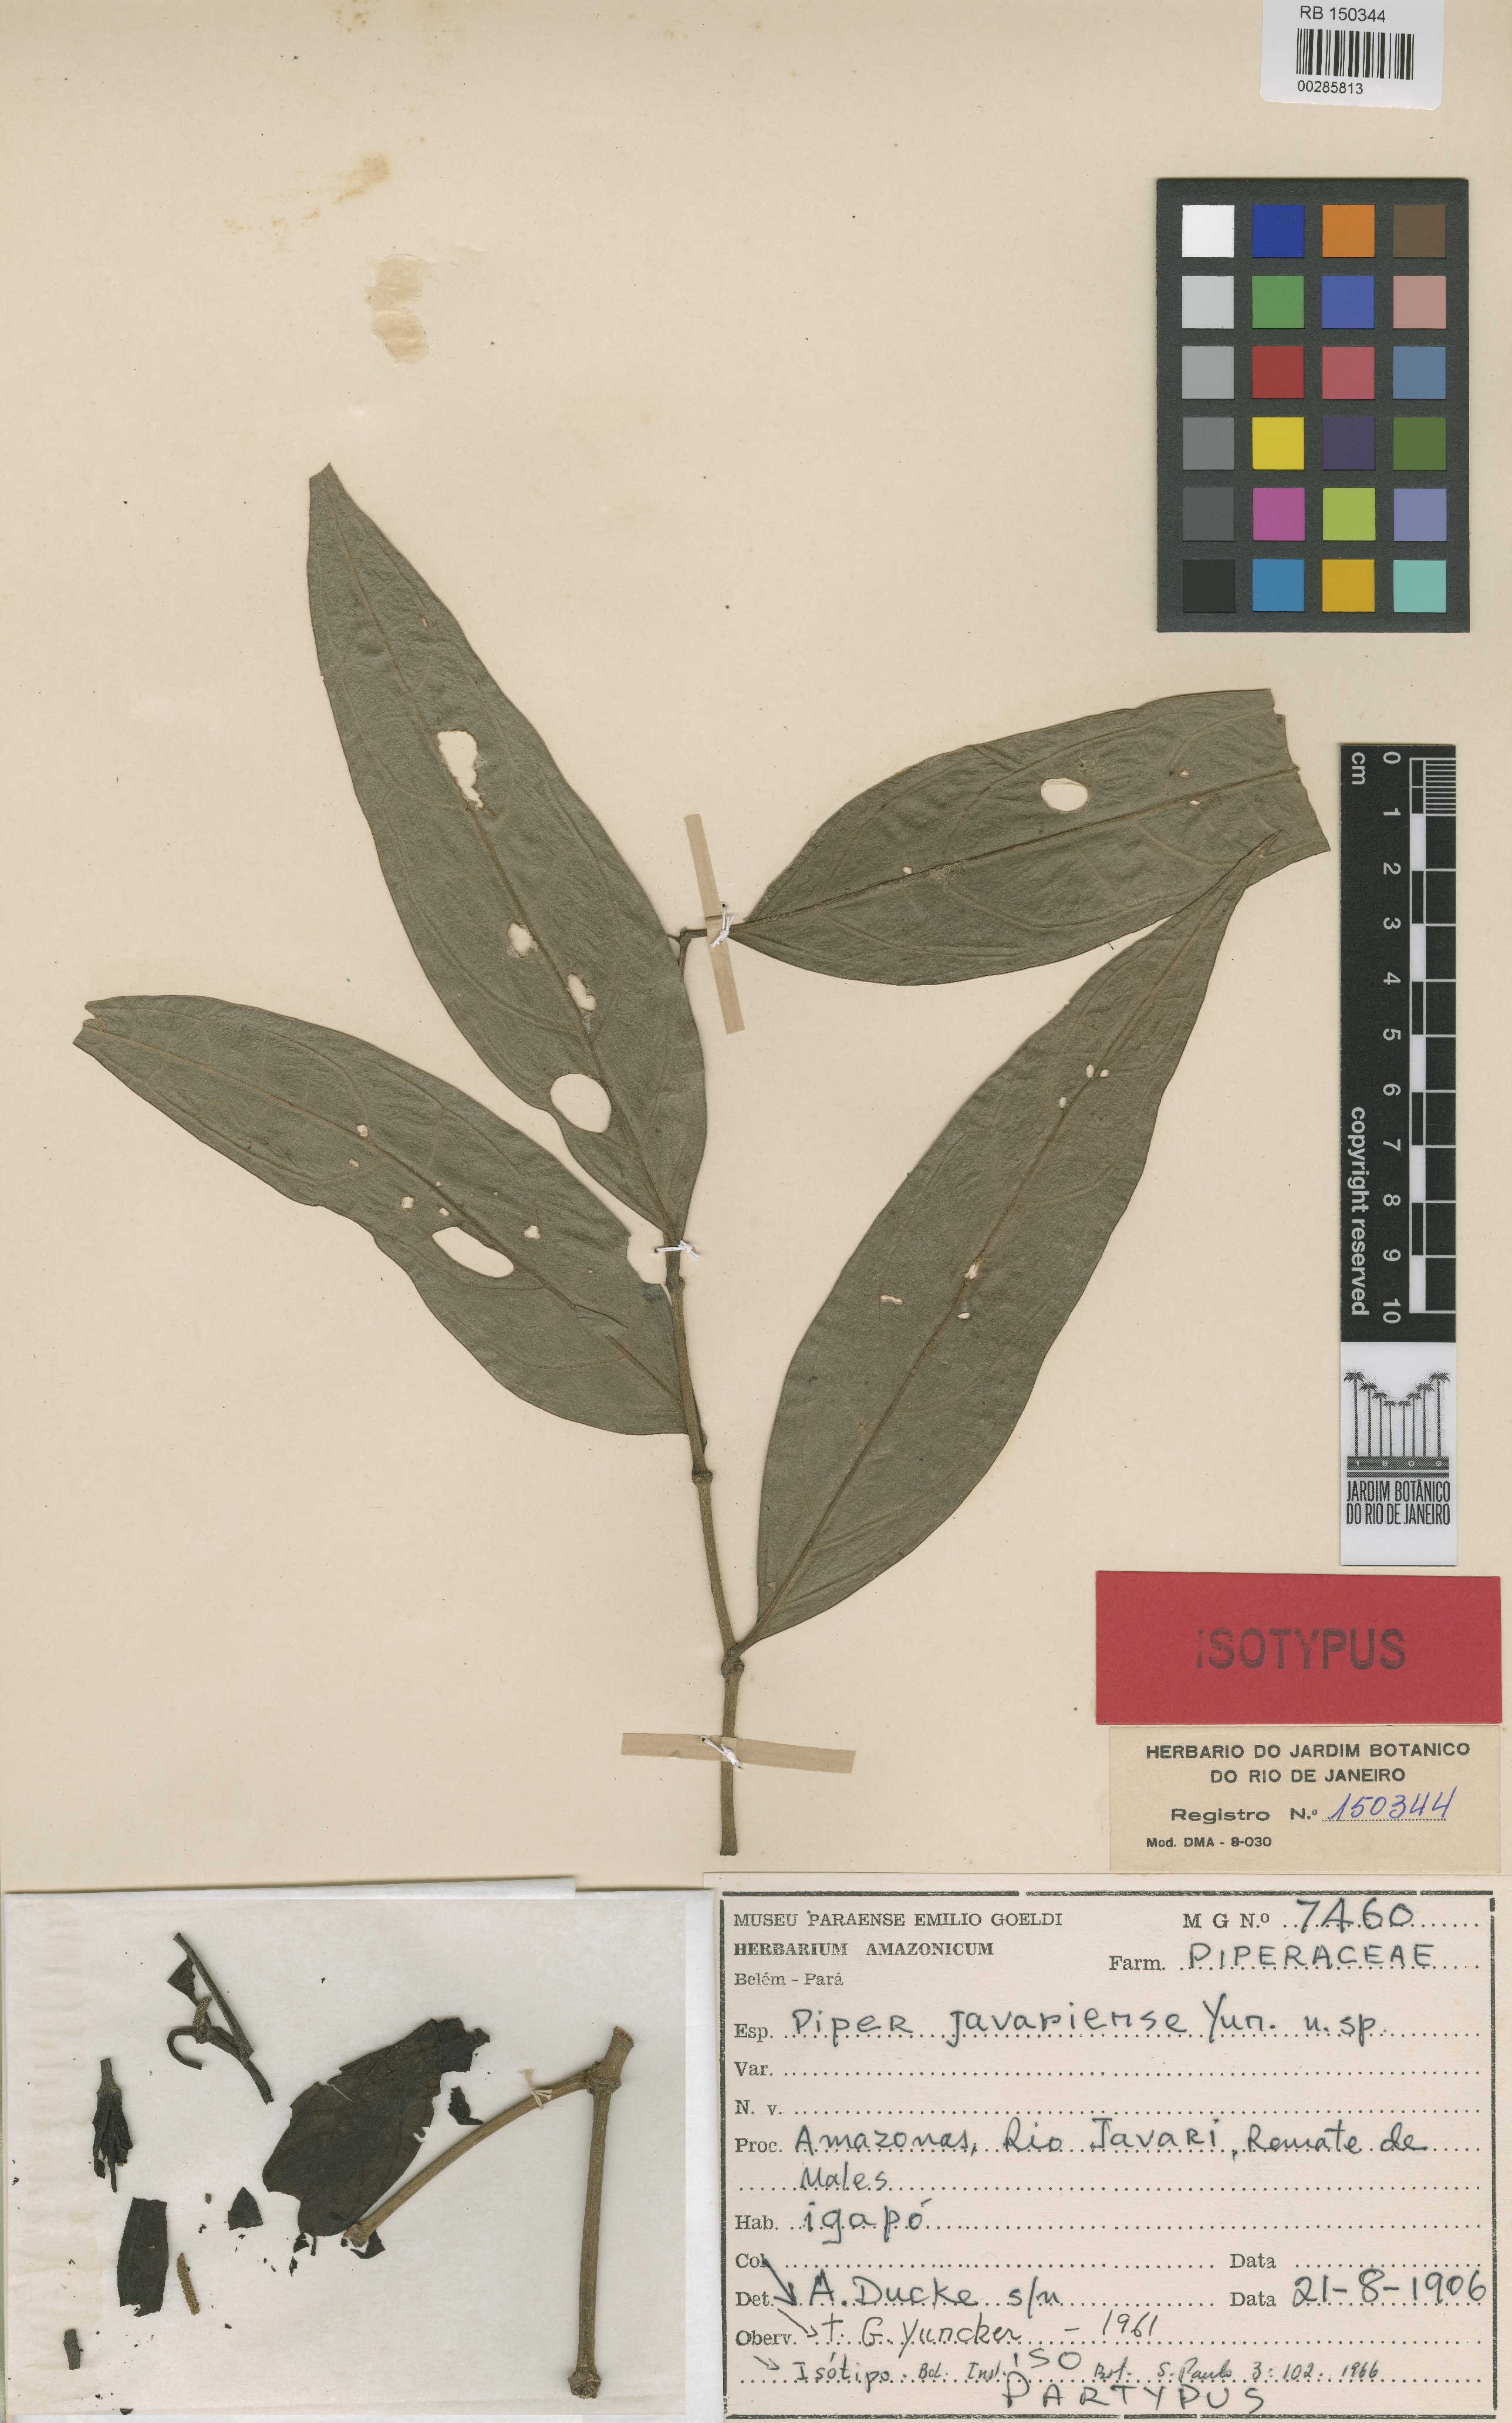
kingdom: Plantae
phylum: Tracheophyta
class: Magnoliopsida
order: Piperales
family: Piperaceae
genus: Piper
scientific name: Piper javariense
